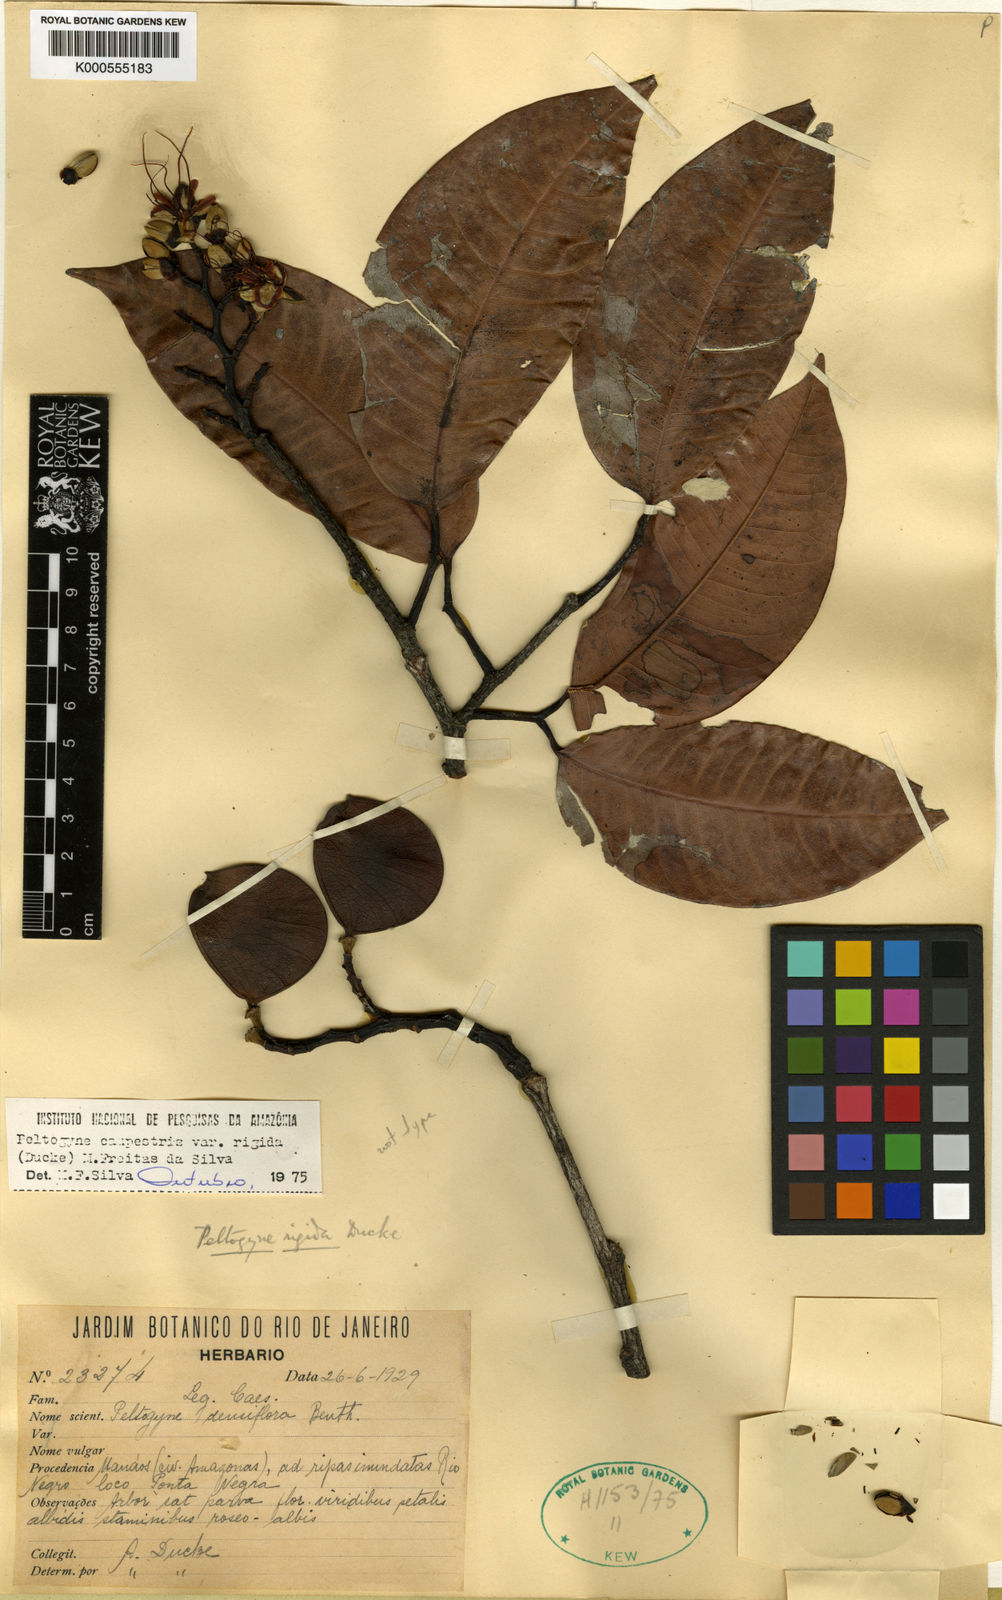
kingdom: Plantae
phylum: Tracheophyta
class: Magnoliopsida
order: Fabales
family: Fabaceae
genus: Peltogyne
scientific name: Peltogyne campestris
